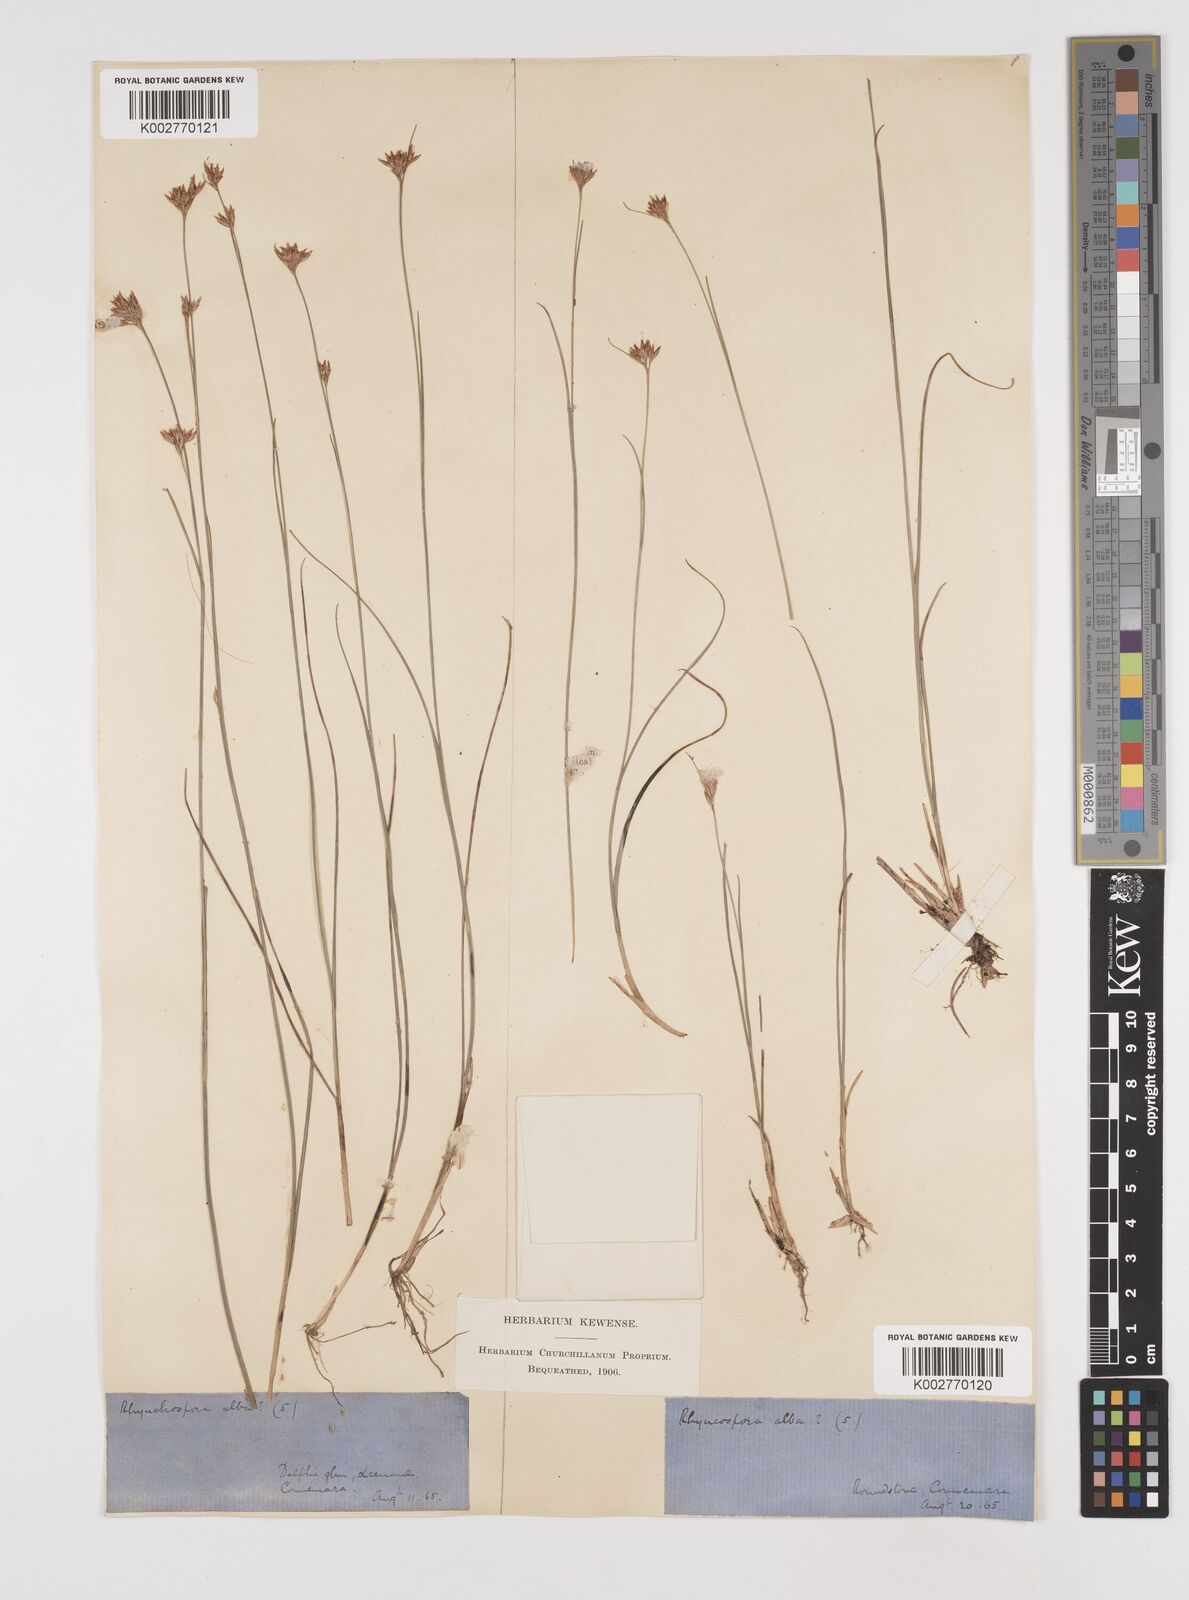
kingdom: Plantae
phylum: Tracheophyta
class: Liliopsida
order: Poales
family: Cyperaceae
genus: Rhynchospora
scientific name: Rhynchospora alba
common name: White beak-sedge
